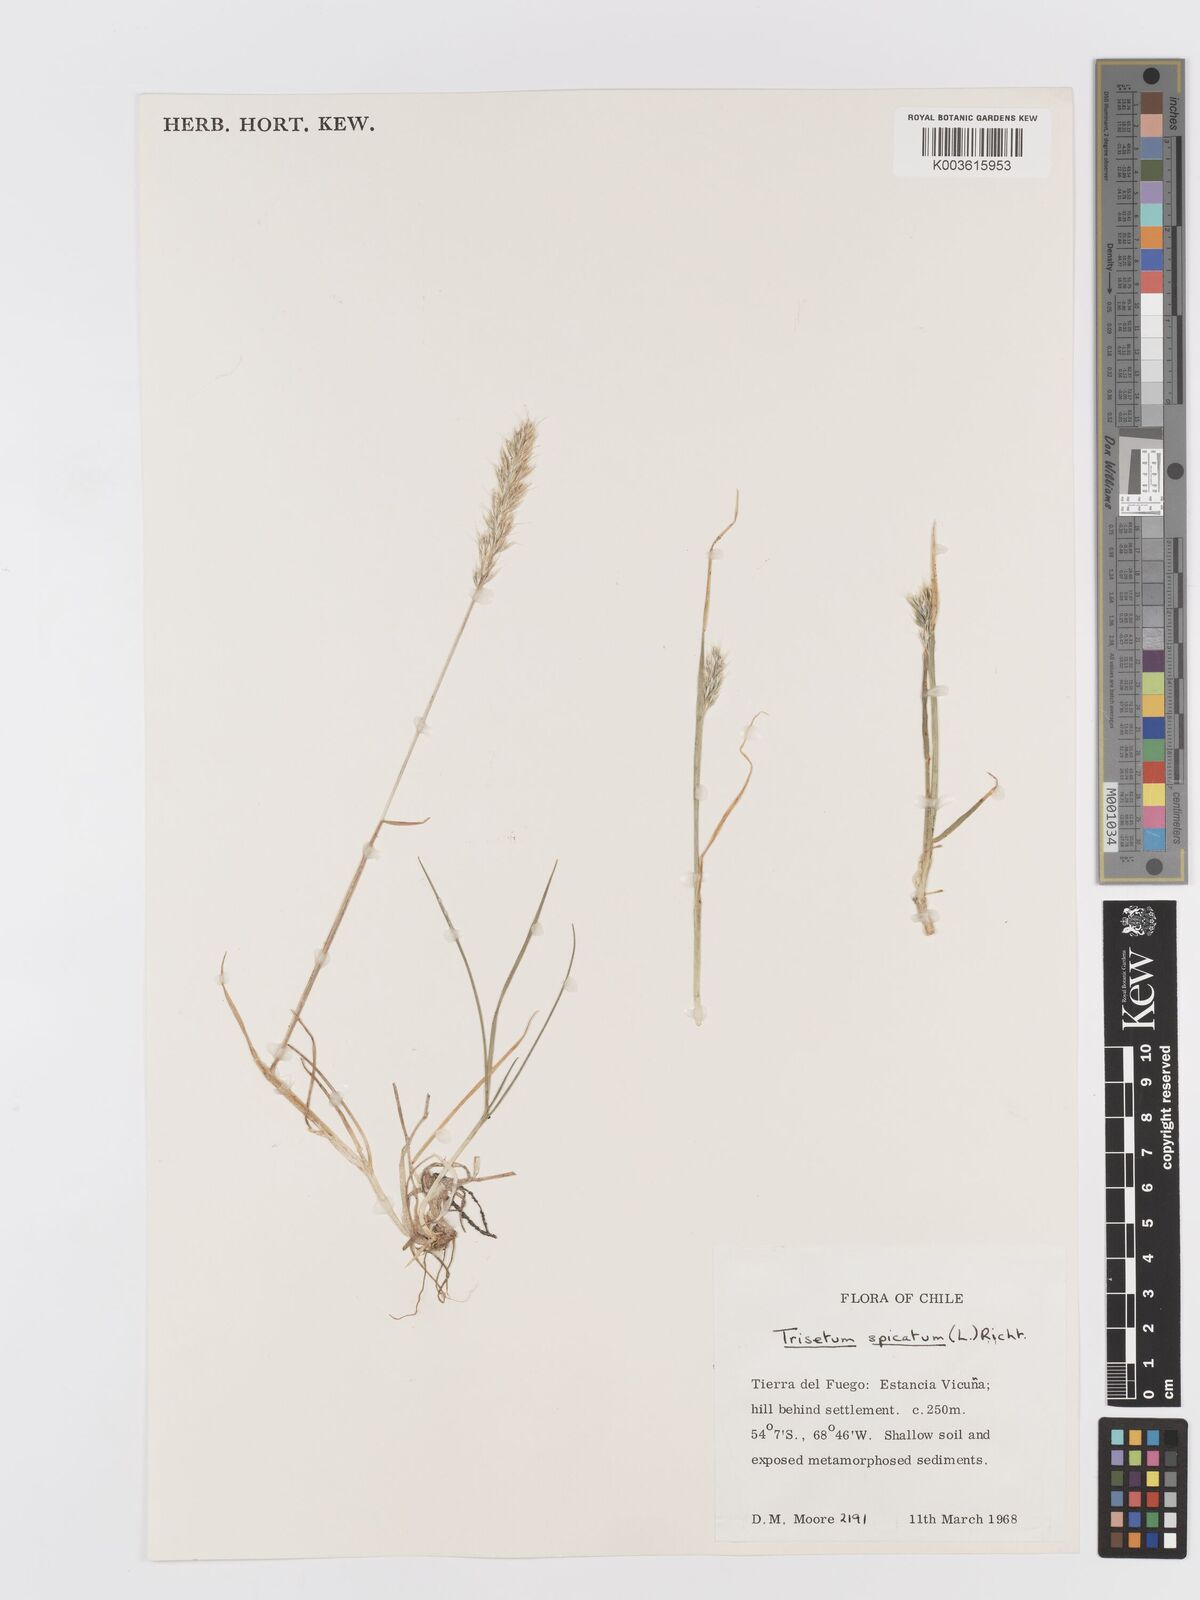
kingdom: Plantae
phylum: Tracheophyta
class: Liliopsida
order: Poales
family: Poaceae
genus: Koeleria
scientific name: Koeleria spicata
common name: Mountain trisetum
